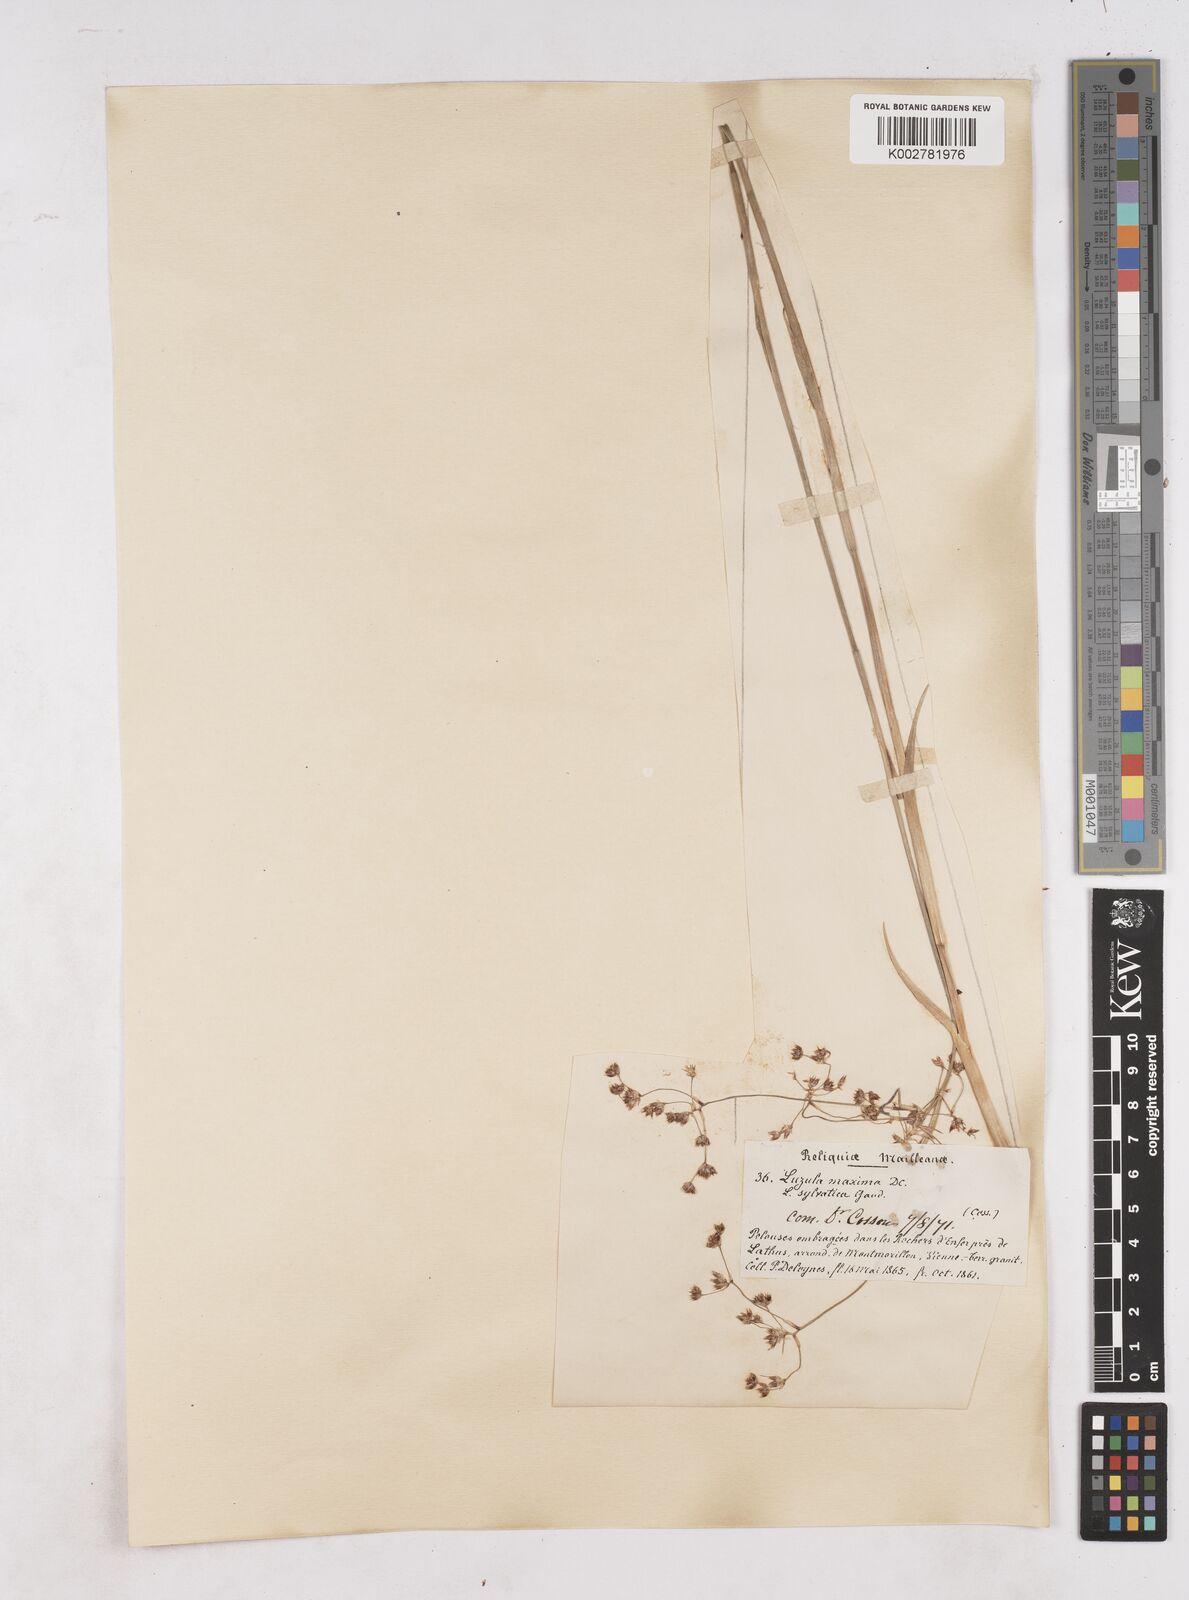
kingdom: Plantae
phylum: Tracheophyta
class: Liliopsida
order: Poales
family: Juncaceae
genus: Luzula
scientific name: Luzula sylvatica
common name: Great wood-rush
